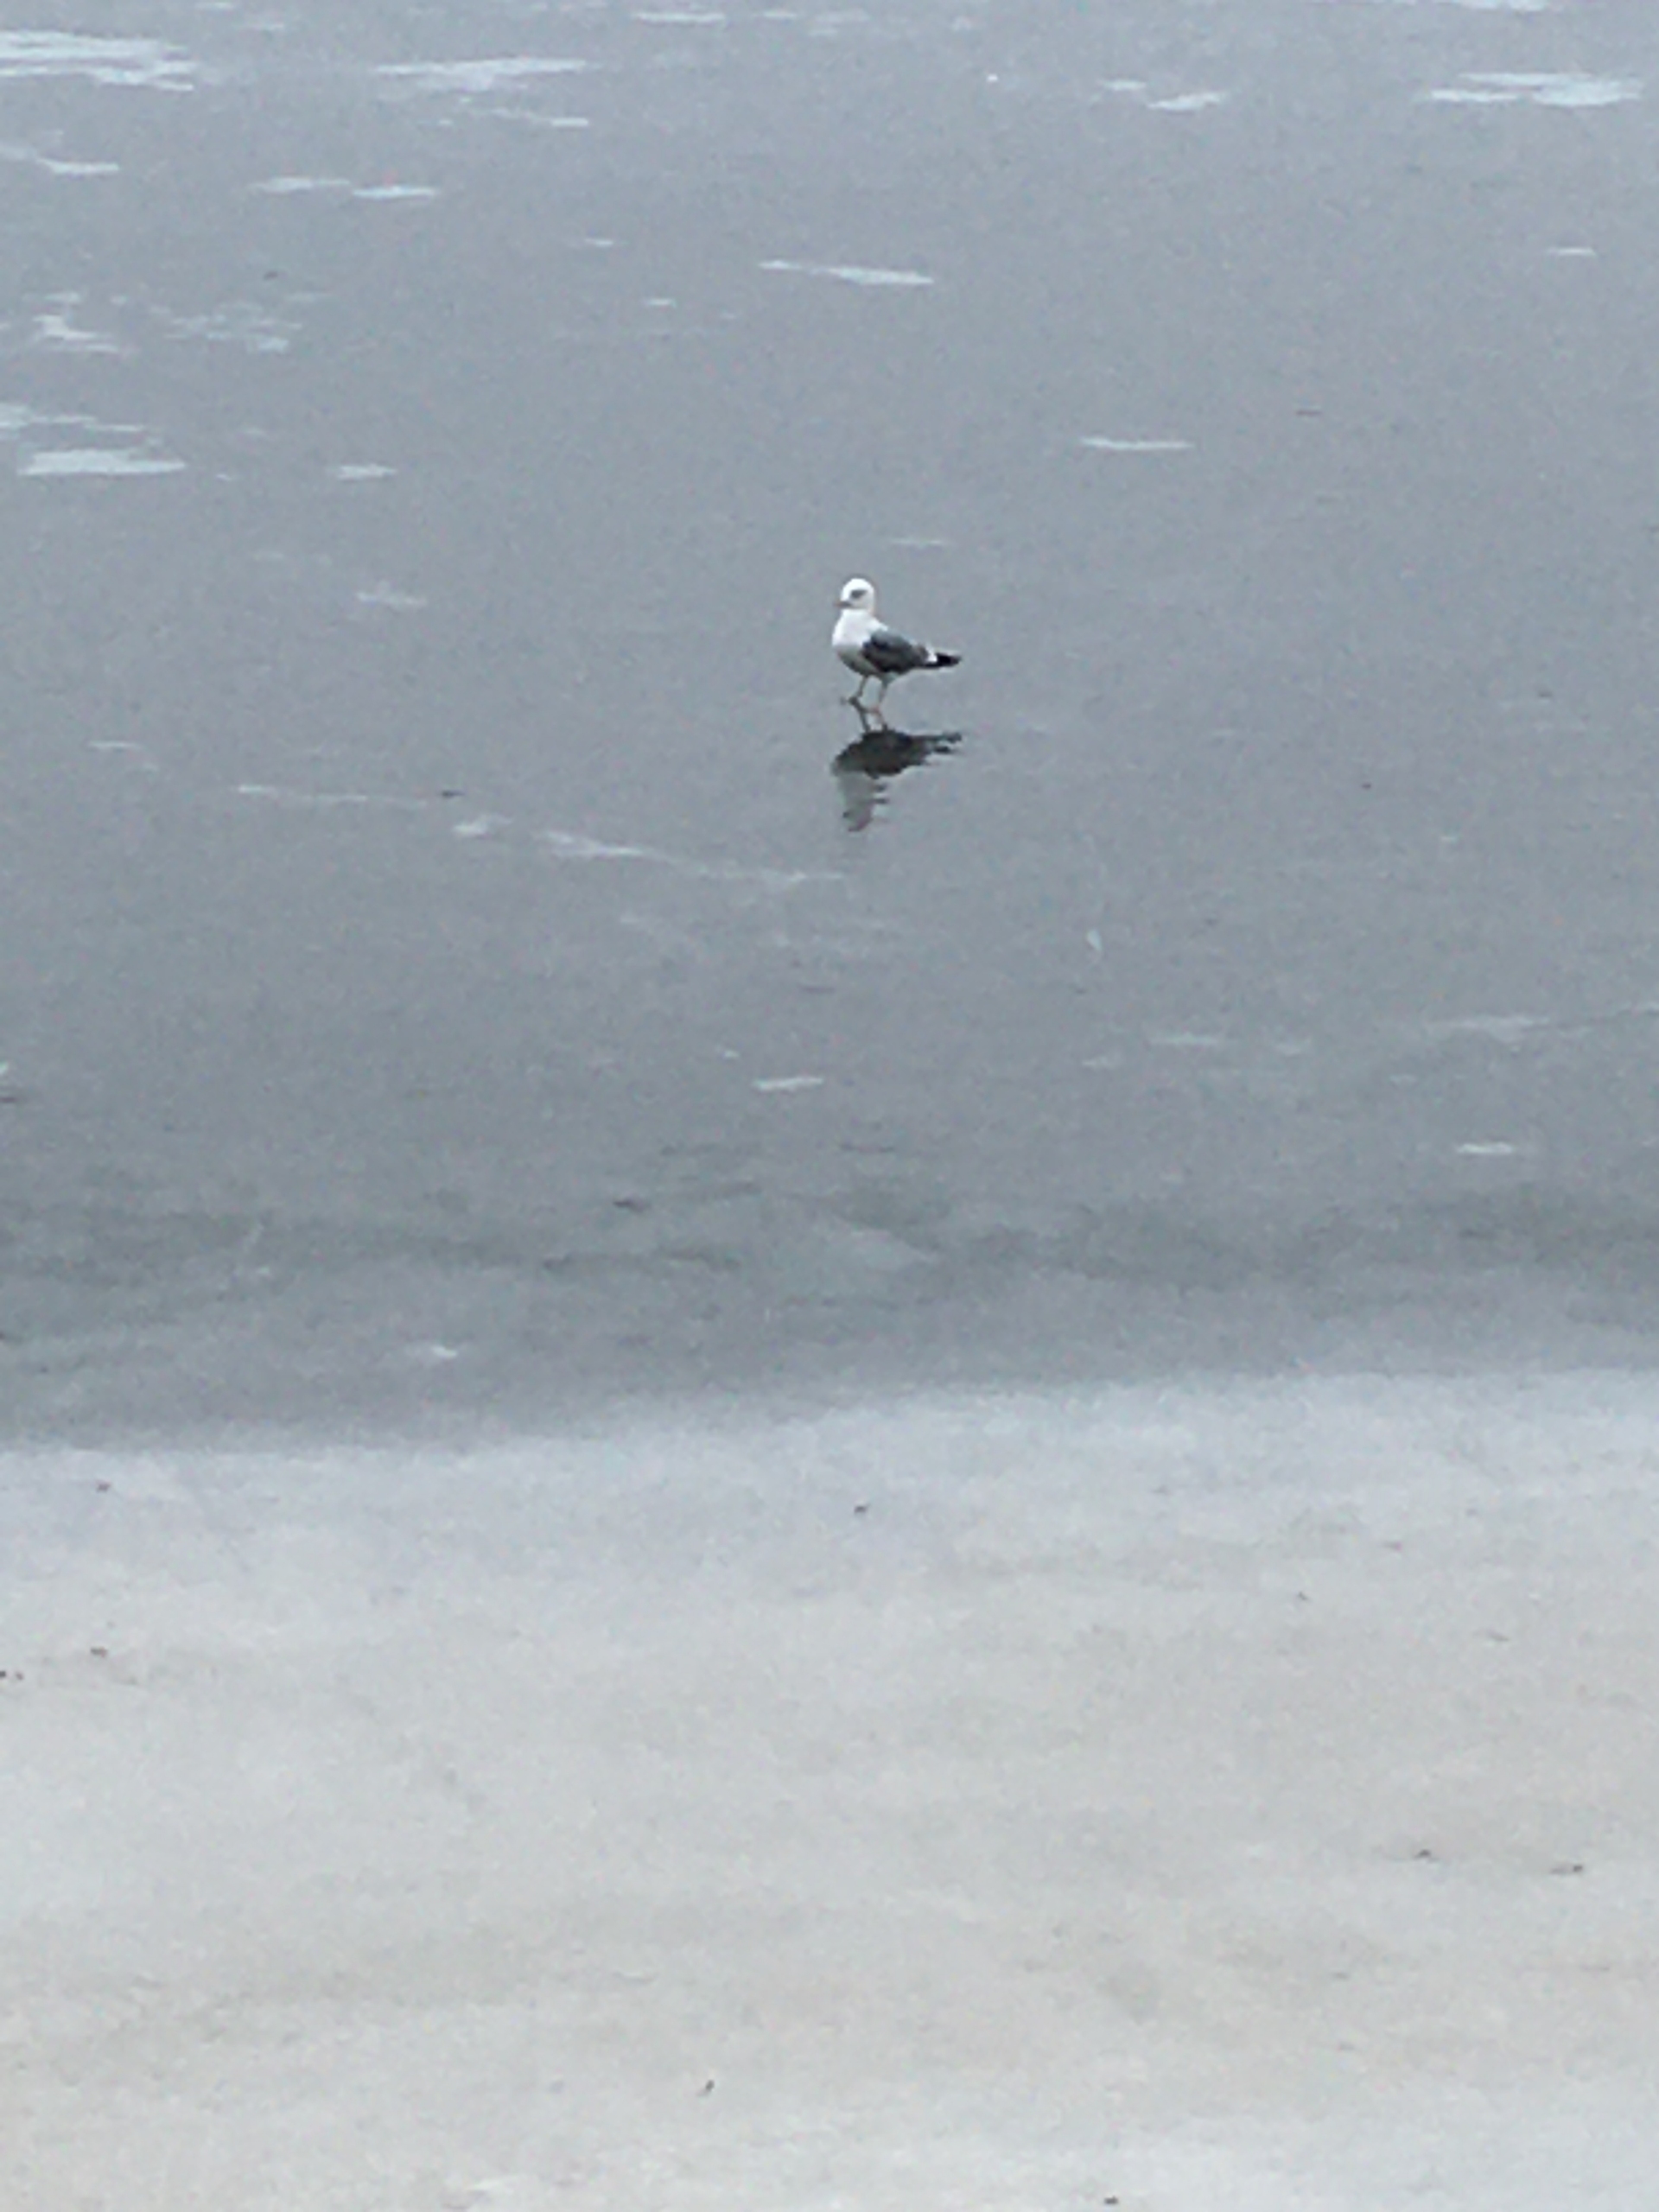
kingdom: Animalia
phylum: Chordata
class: Aves
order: Charadriiformes
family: Laridae
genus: Larus
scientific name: Larus canus
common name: Stormmåge
